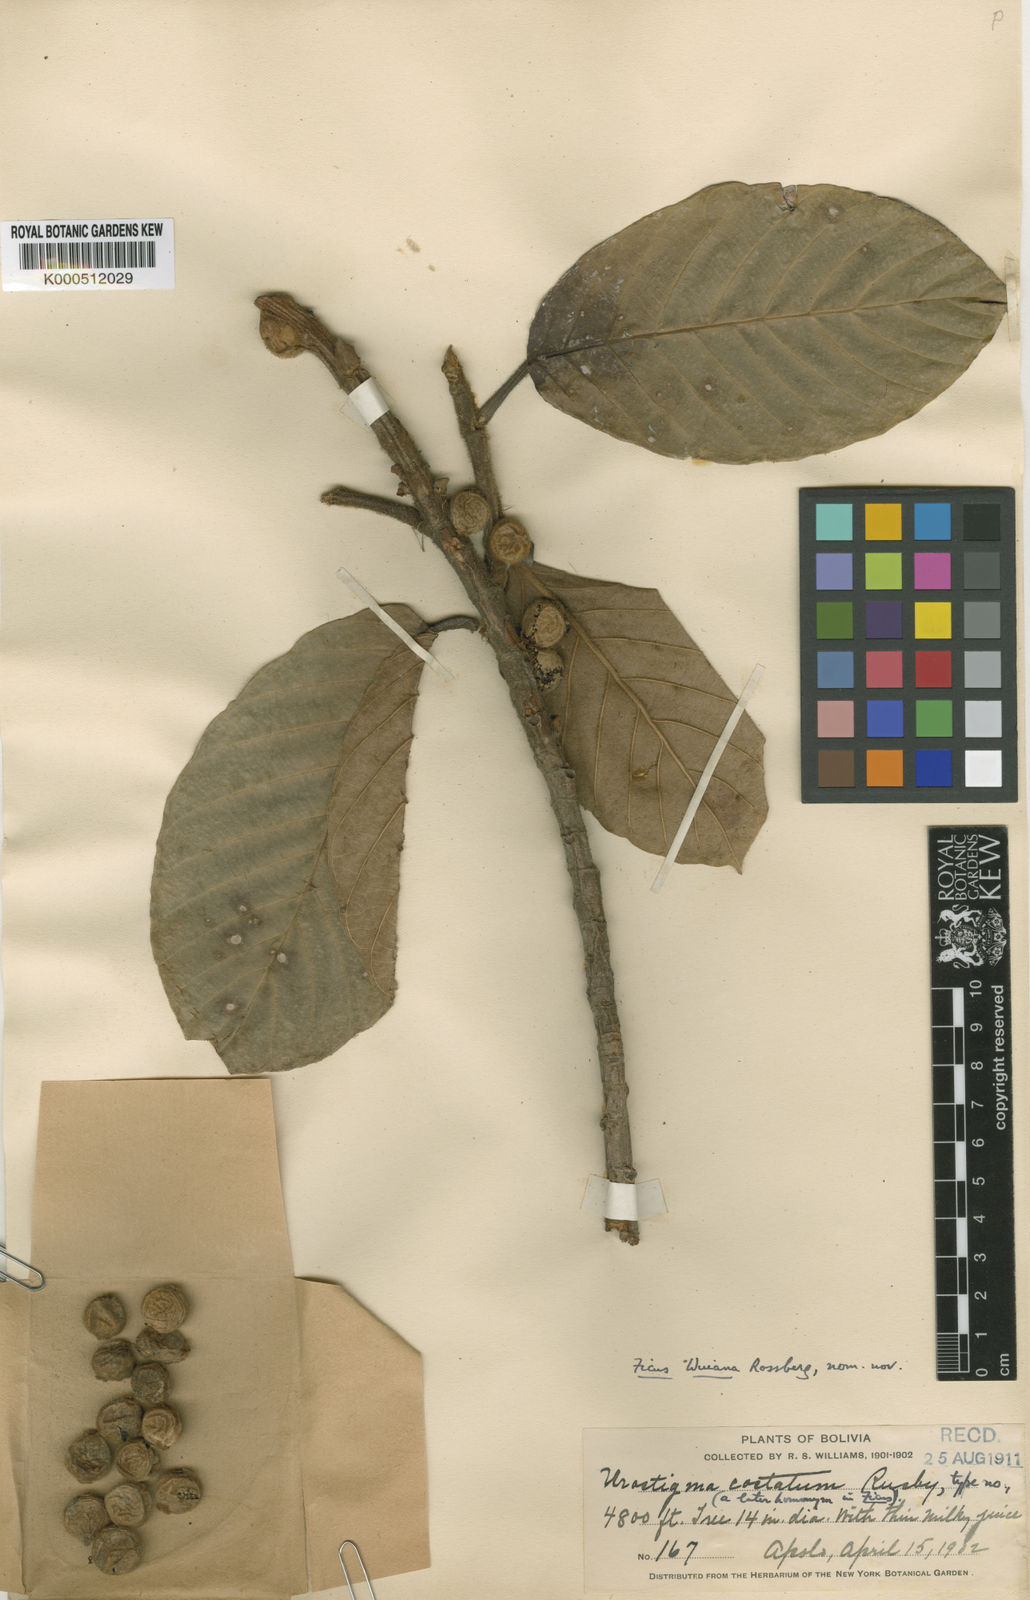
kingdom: Plantae
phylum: Tracheophyta
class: Magnoliopsida
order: Rosales
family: Moraceae
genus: Ficus
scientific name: Ficus trigona
